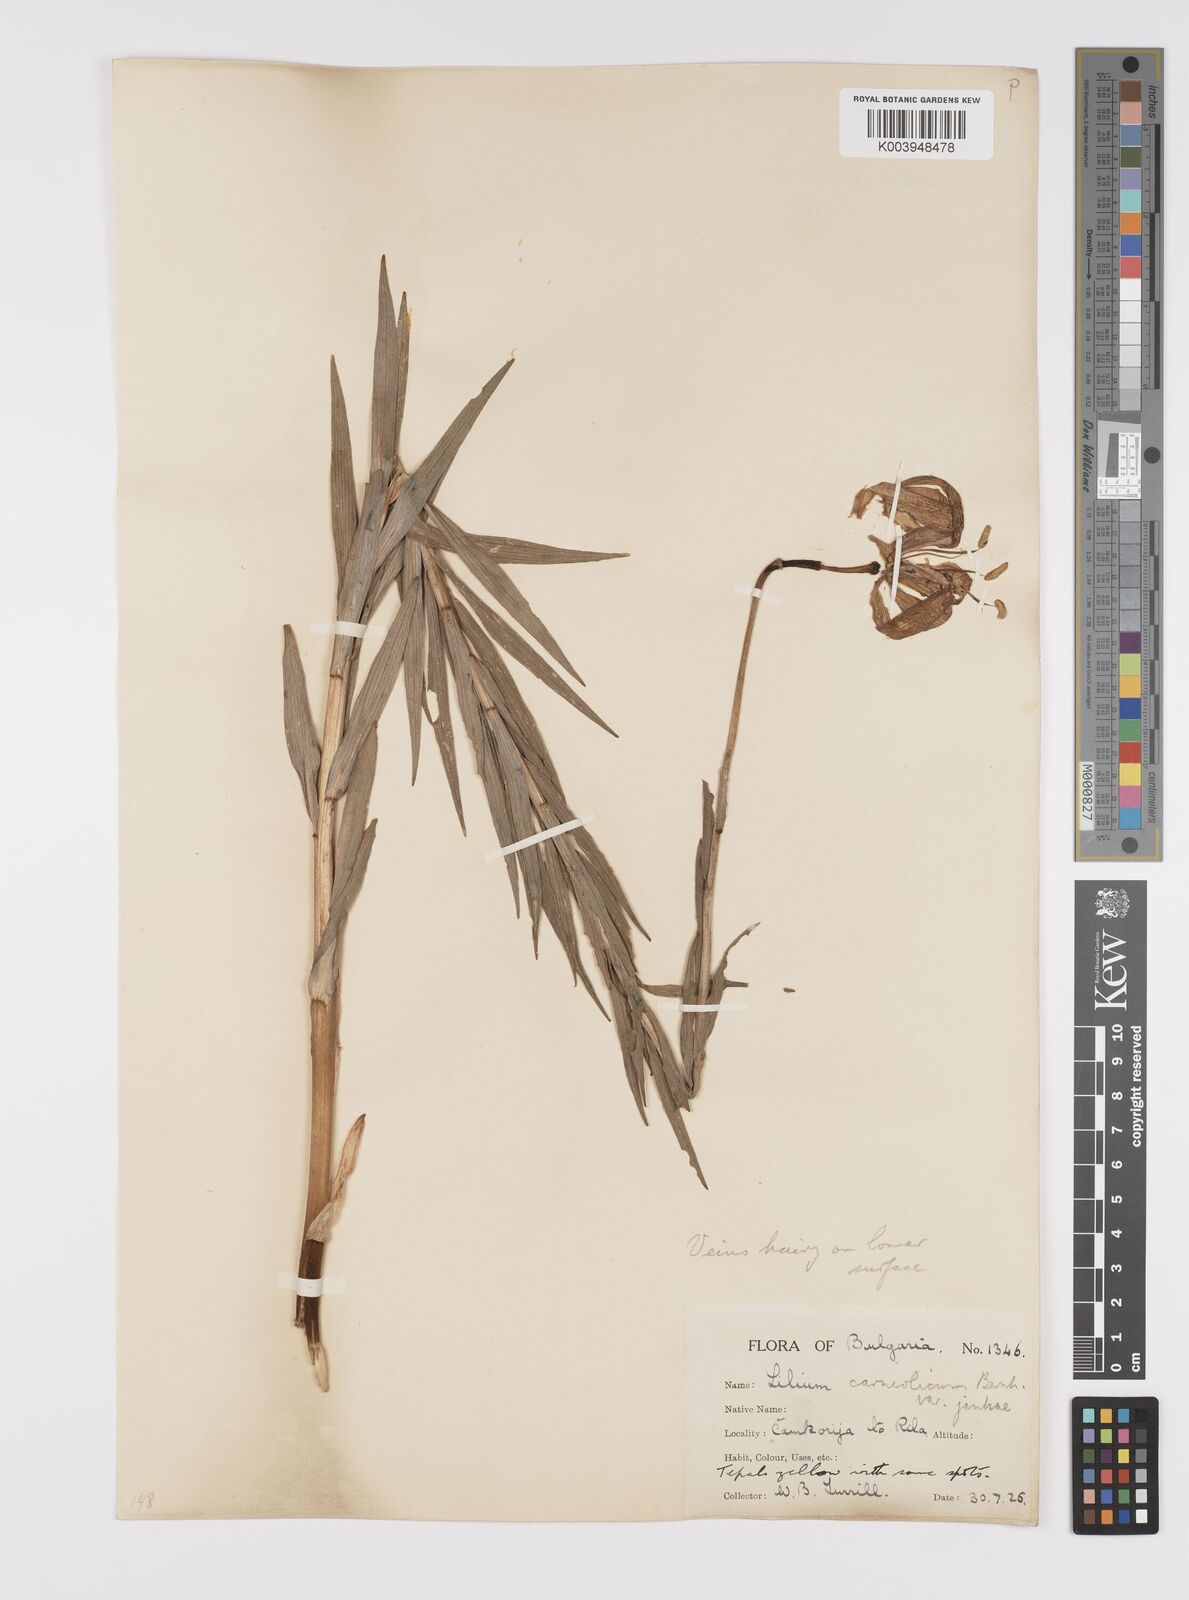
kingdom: Plantae
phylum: Tracheophyta
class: Liliopsida
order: Liliales
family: Liliaceae
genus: Lilium
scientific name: Lilium jankae
